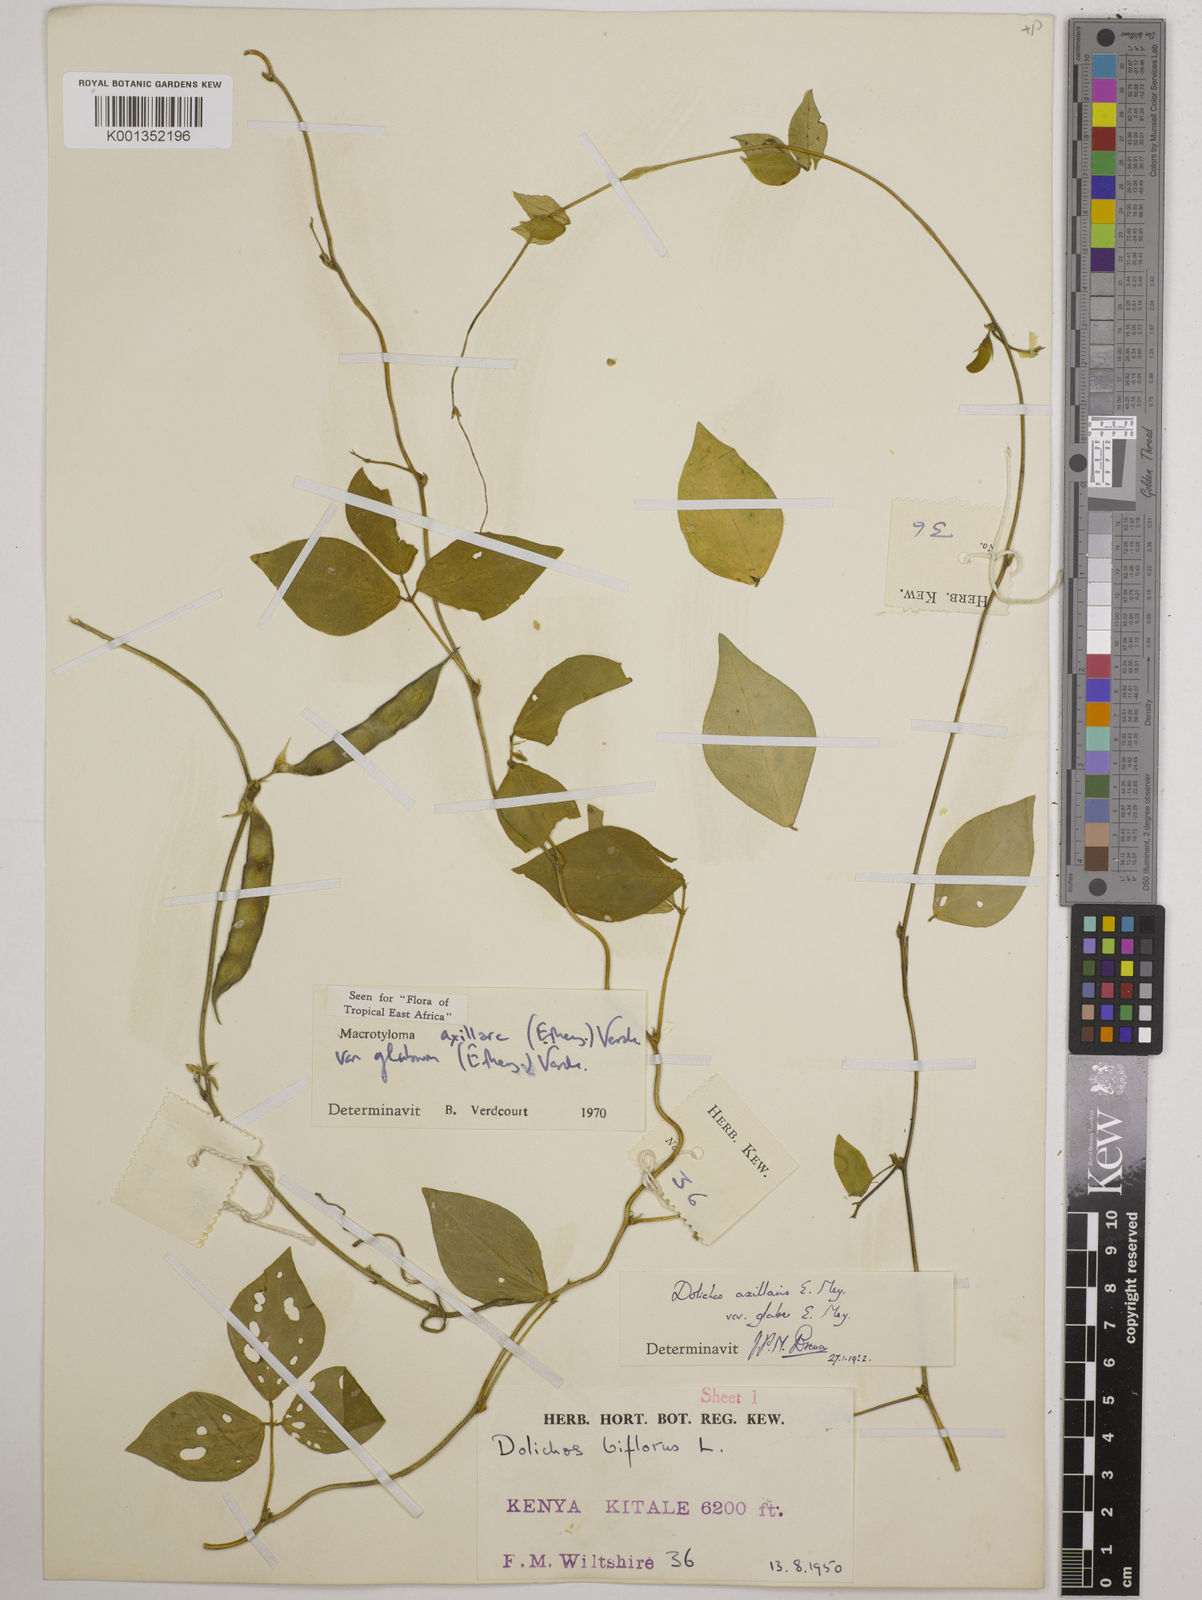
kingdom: Plantae
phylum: Tracheophyta
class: Magnoliopsida
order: Fabales
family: Fabaceae
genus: Macrotyloma
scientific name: Macrotyloma
